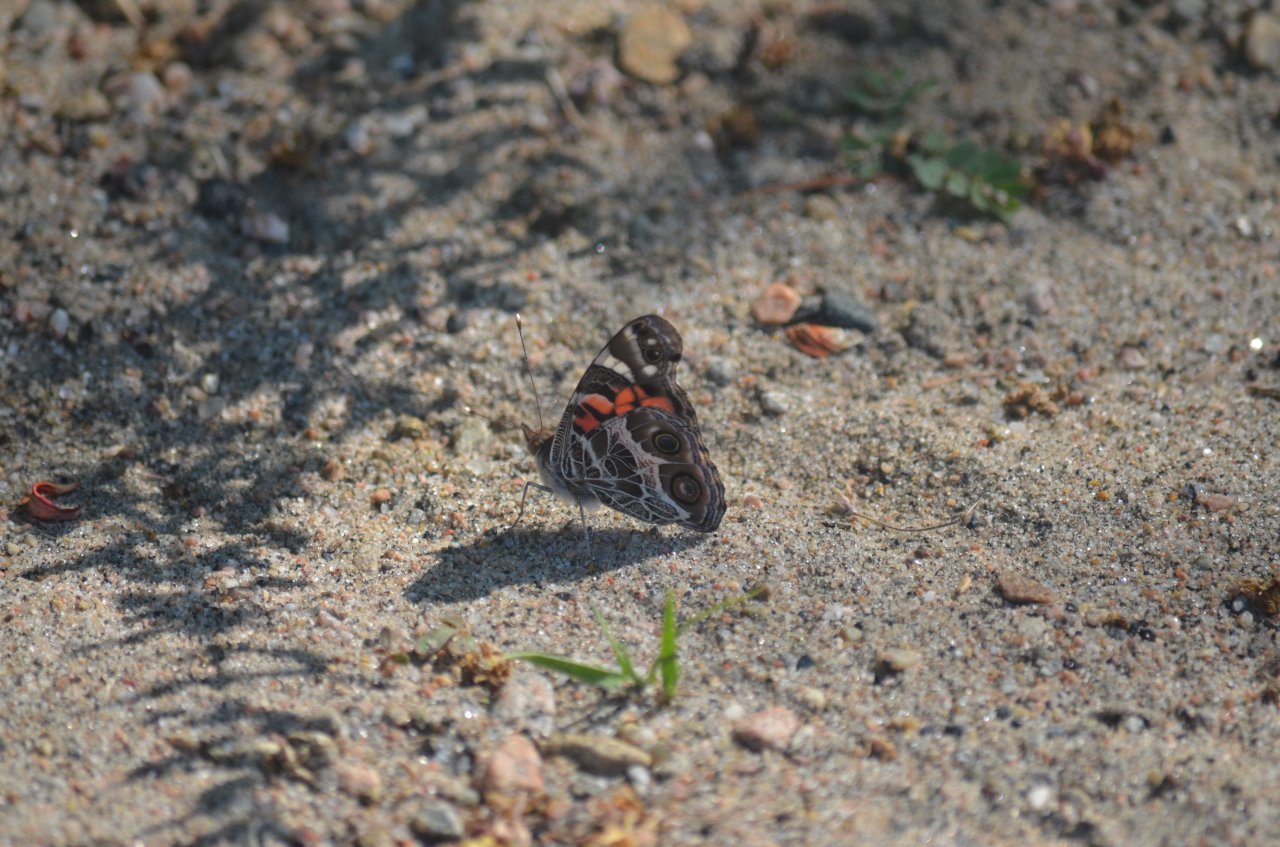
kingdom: Animalia
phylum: Arthropoda
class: Insecta
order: Lepidoptera
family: Nymphalidae
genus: Vanessa
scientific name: Vanessa virginiensis
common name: American Lady
